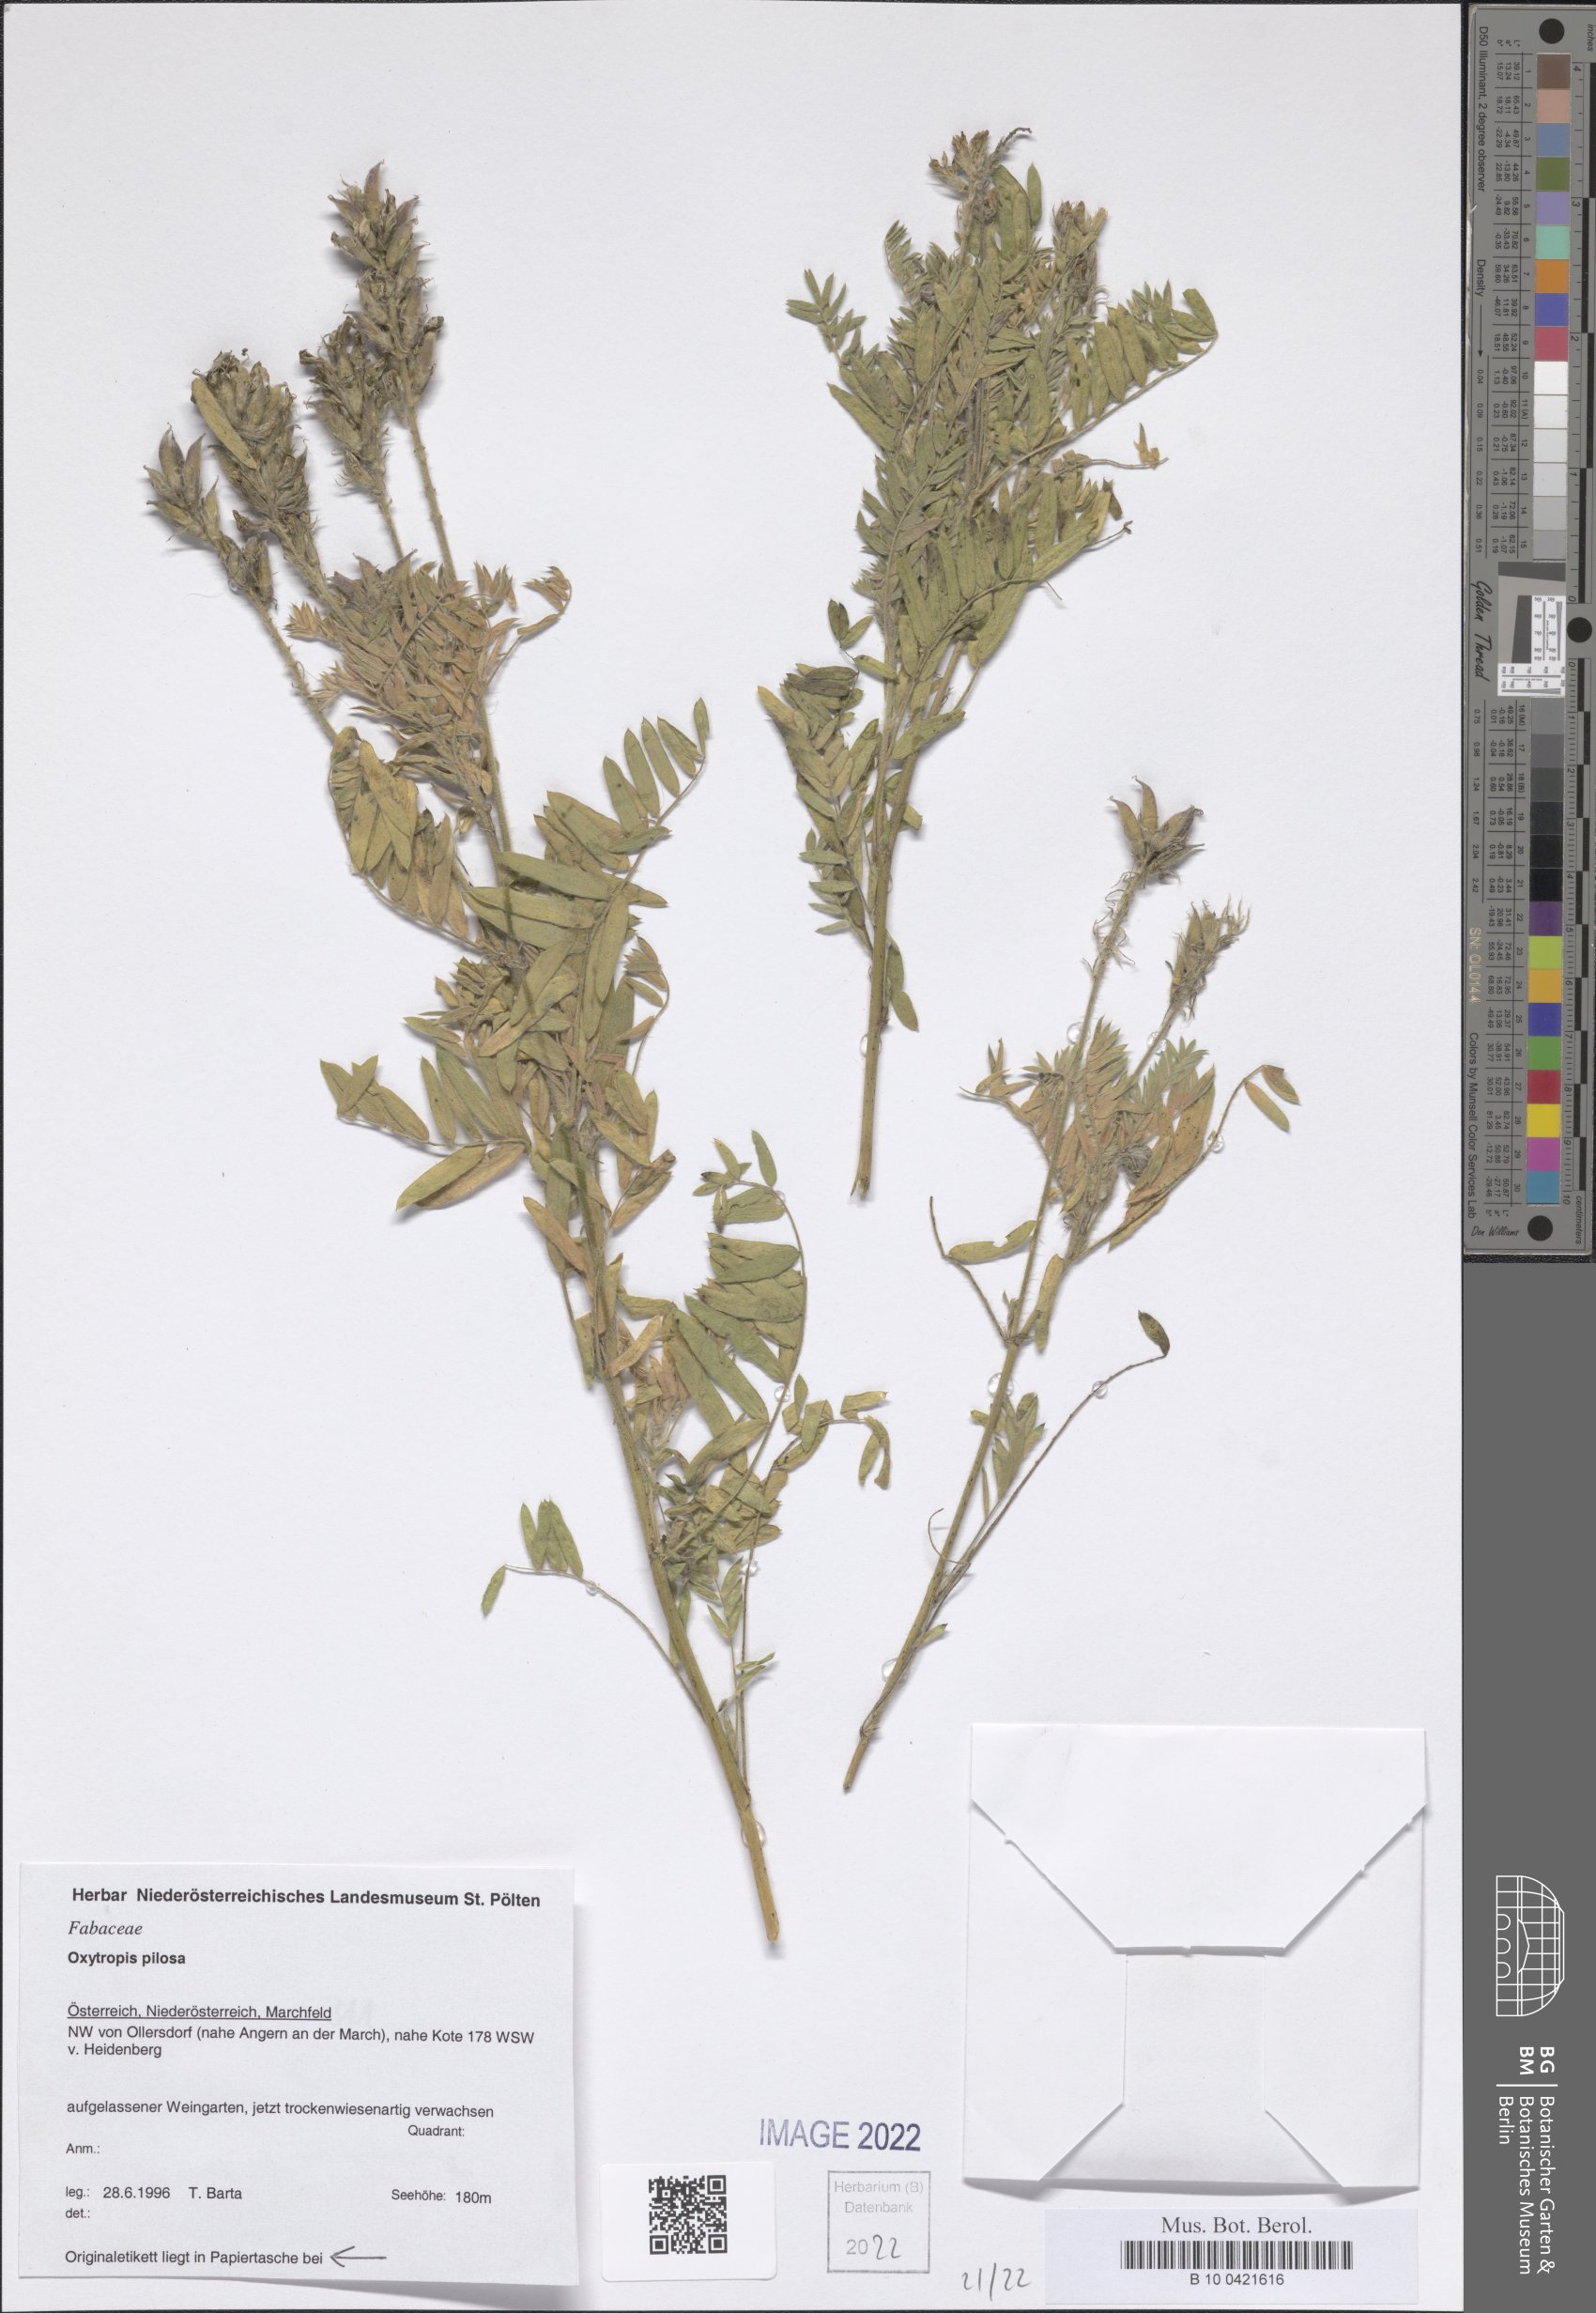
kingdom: Plantae
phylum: Tracheophyta
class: Magnoliopsida
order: Fabales
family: Fabaceae
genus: Oxytropis
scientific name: Oxytropis pilosa
